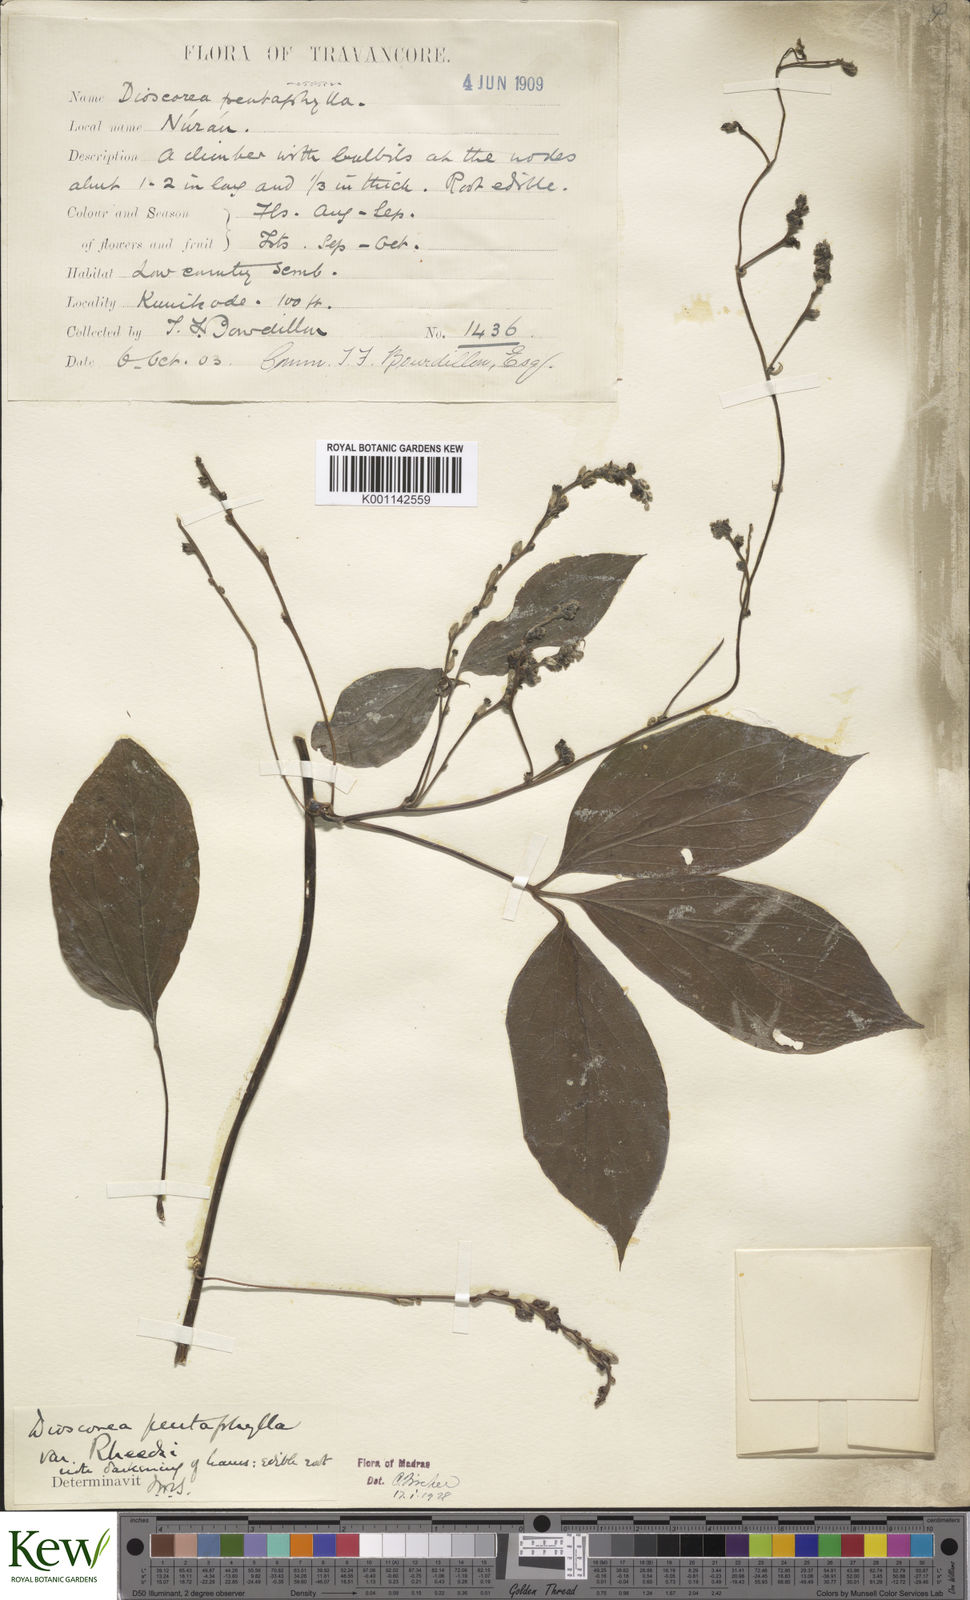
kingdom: Plantae
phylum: Tracheophyta
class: Liliopsida
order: Dioscoreales
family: Dioscoreaceae
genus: Dioscorea
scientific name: Dioscorea pentaphylla
